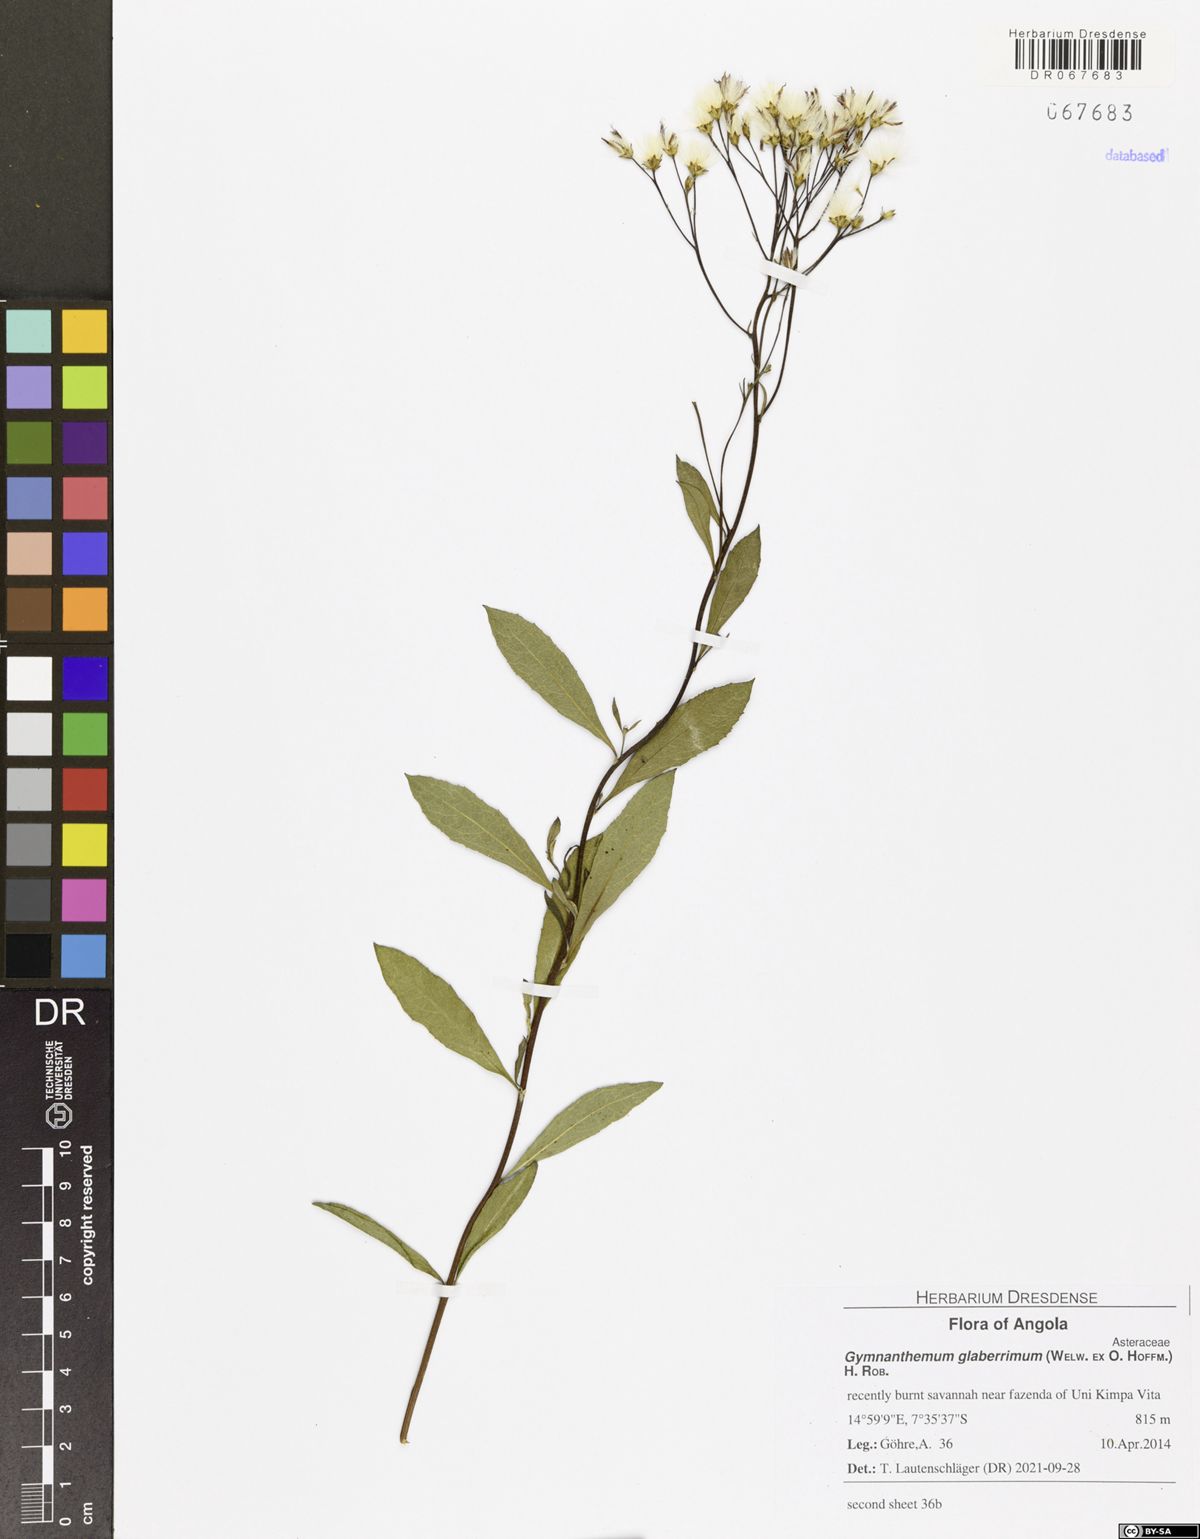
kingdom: Plantae
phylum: Tracheophyta
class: Magnoliopsida
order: Asterales
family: Asteraceae
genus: Gymnanthemum
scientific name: Gymnanthemum glaberrimum
